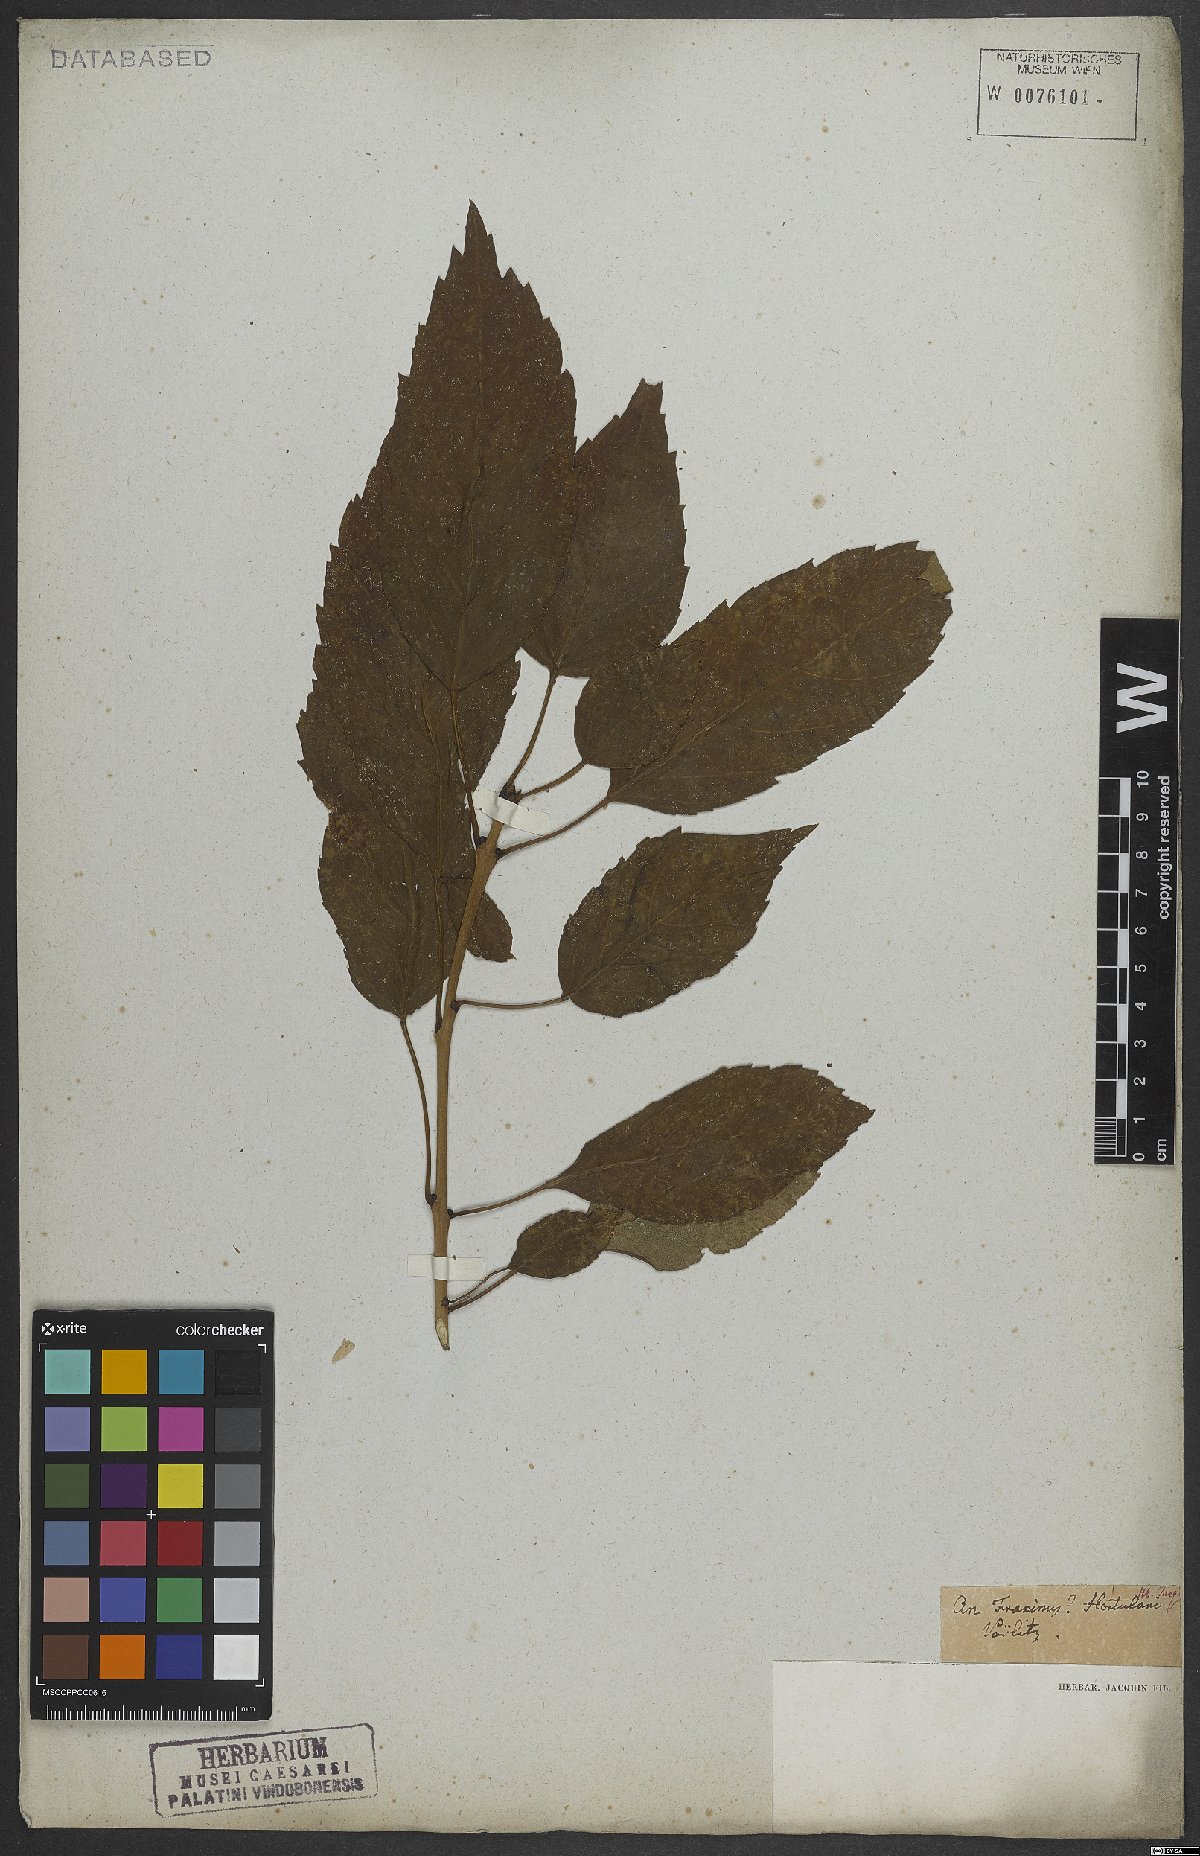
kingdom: Plantae
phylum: Tracheophyta
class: Magnoliopsida
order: Lamiales
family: Oleaceae
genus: Fraxinus
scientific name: Fraxinus excelsior
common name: European ash
